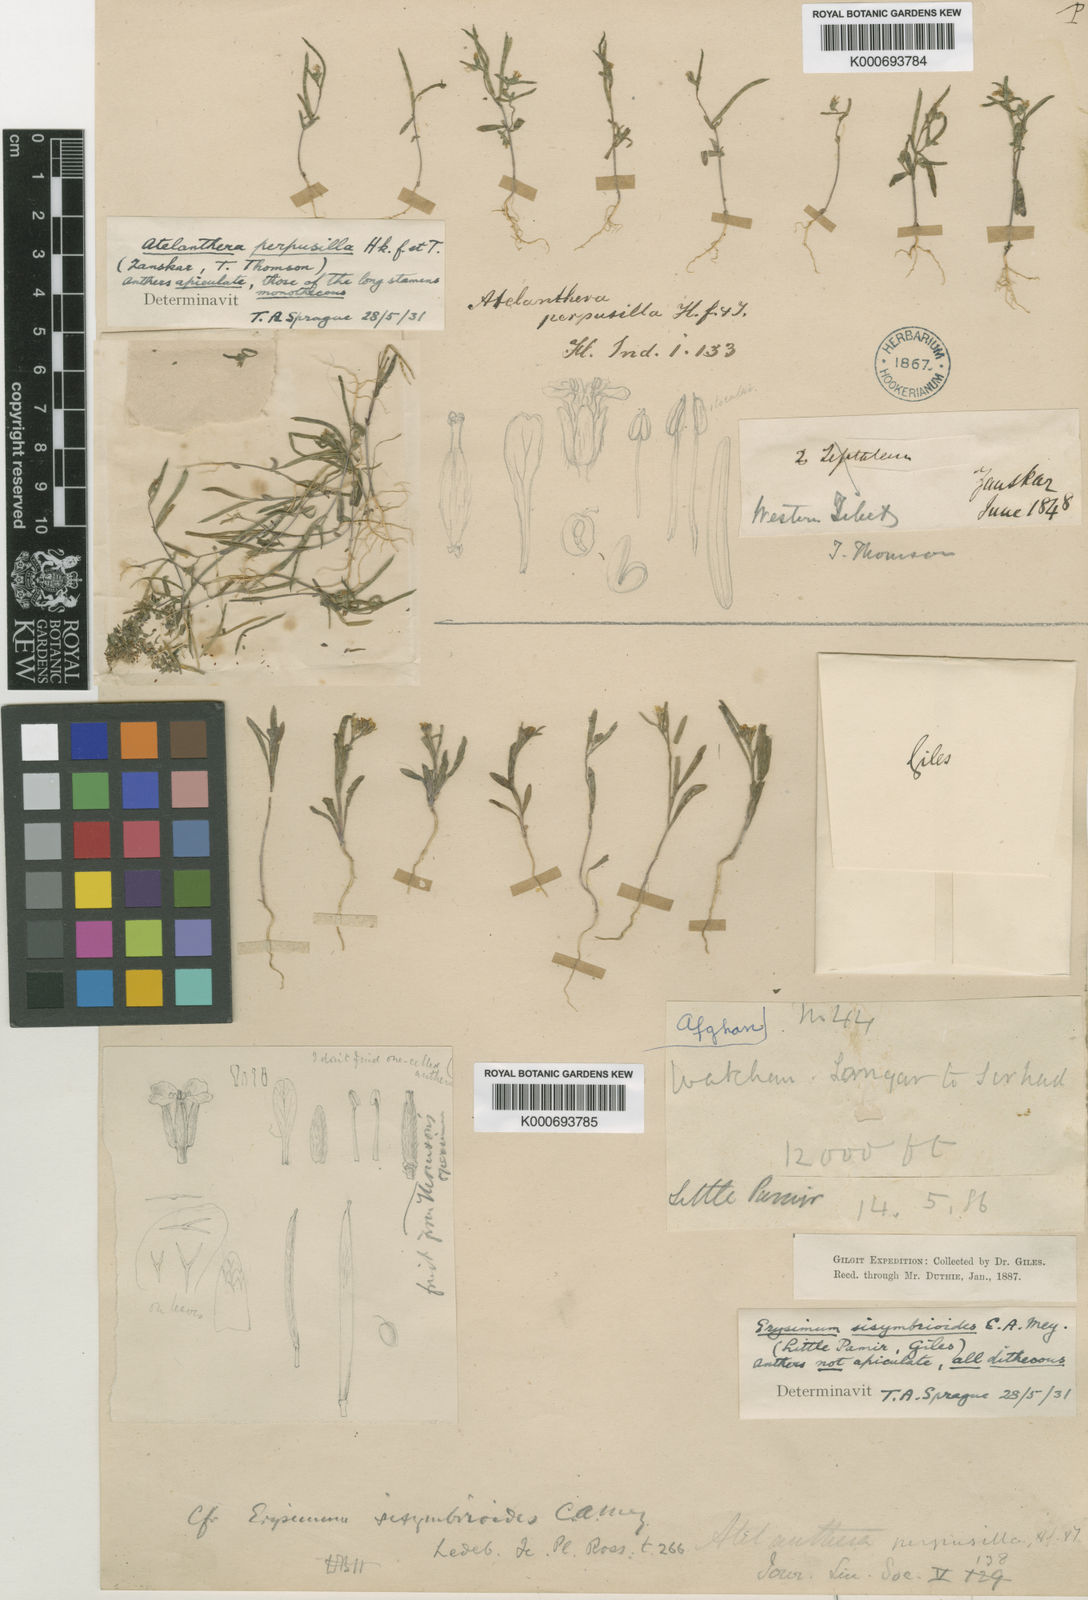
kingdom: Plantae
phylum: Tracheophyta
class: Magnoliopsida
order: Brassicales
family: Brassicaceae
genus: Atelanthera
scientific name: Atelanthera perpusilla
